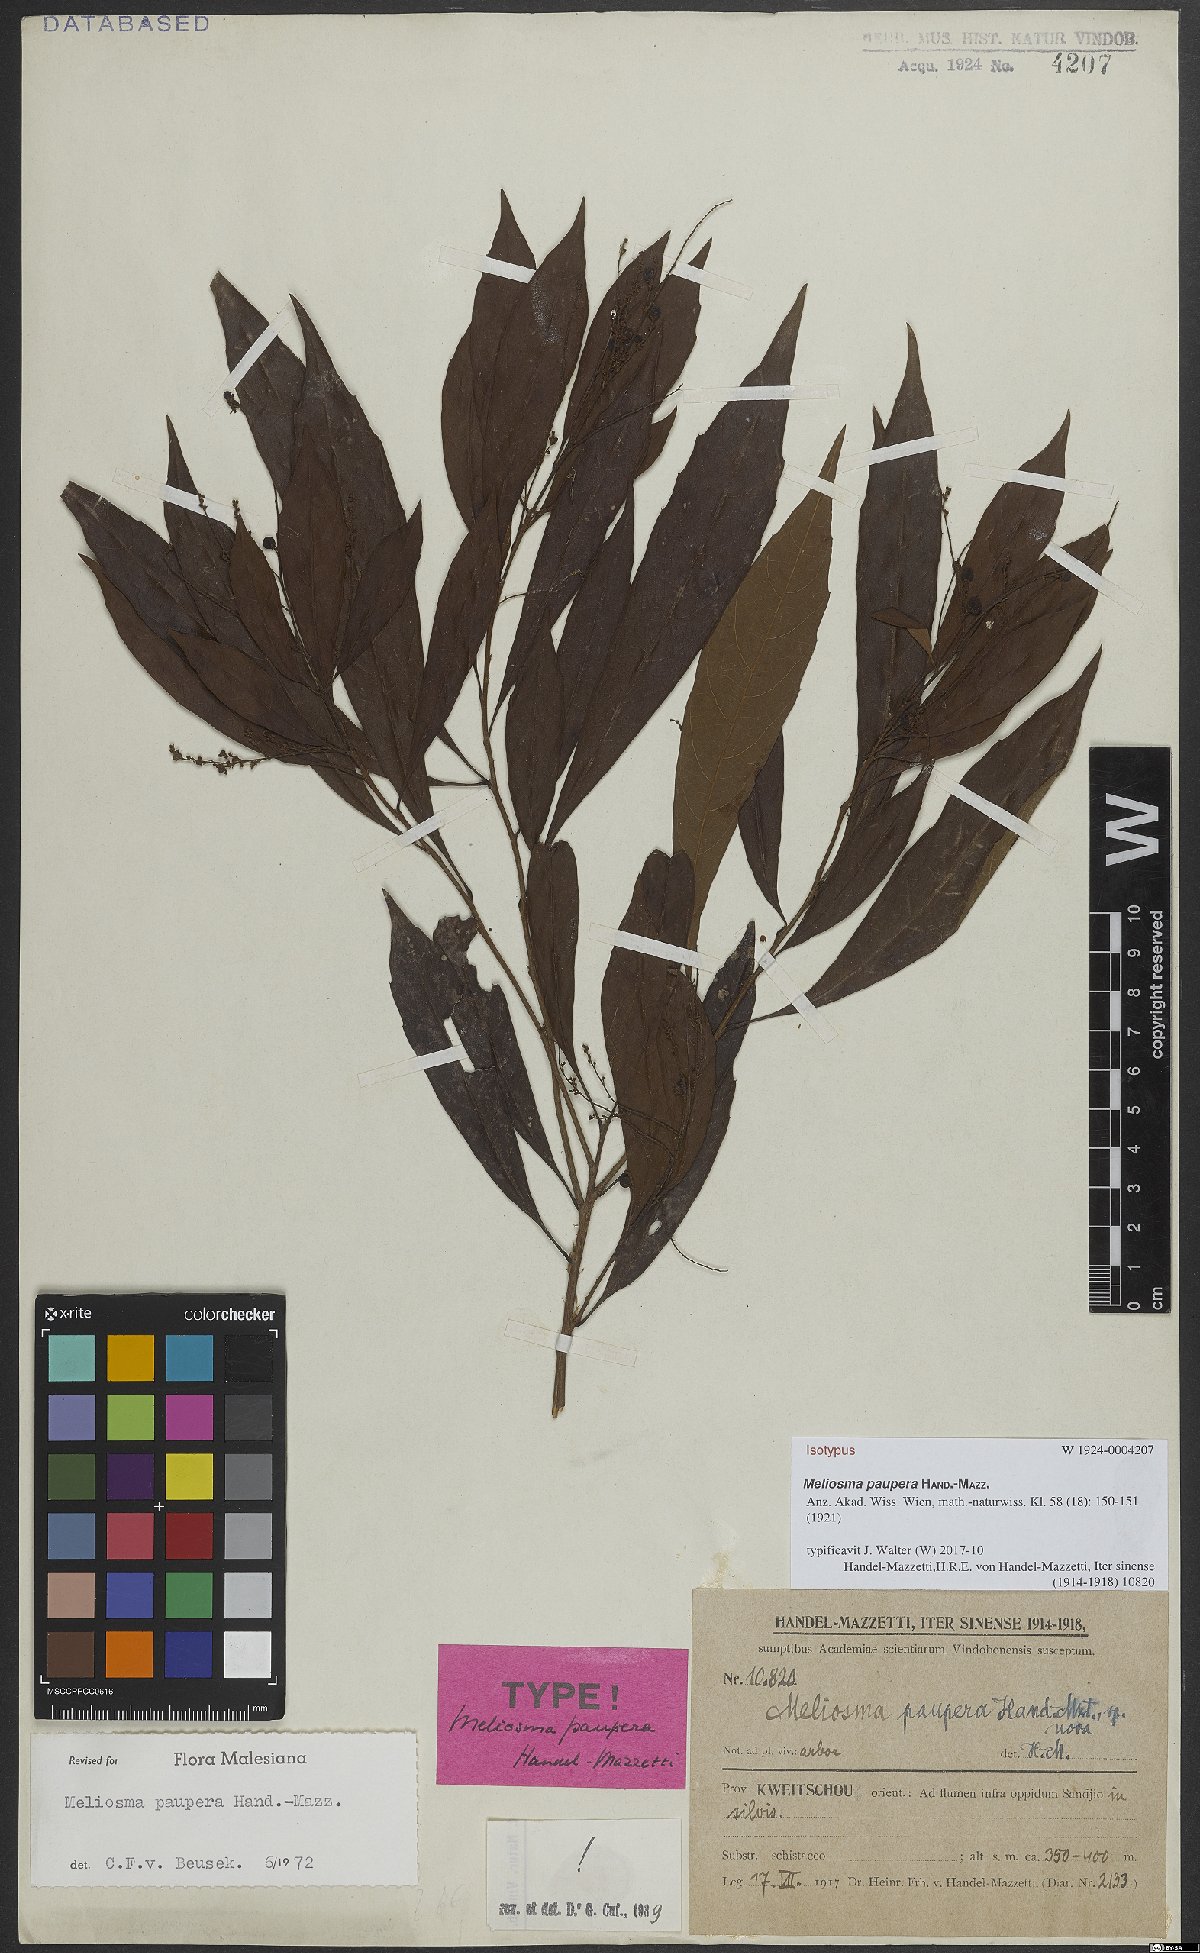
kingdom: Plantae
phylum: Tracheophyta
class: Magnoliopsida
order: Proteales
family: Sabiaceae
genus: Meliosma
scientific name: Meliosma paupera
